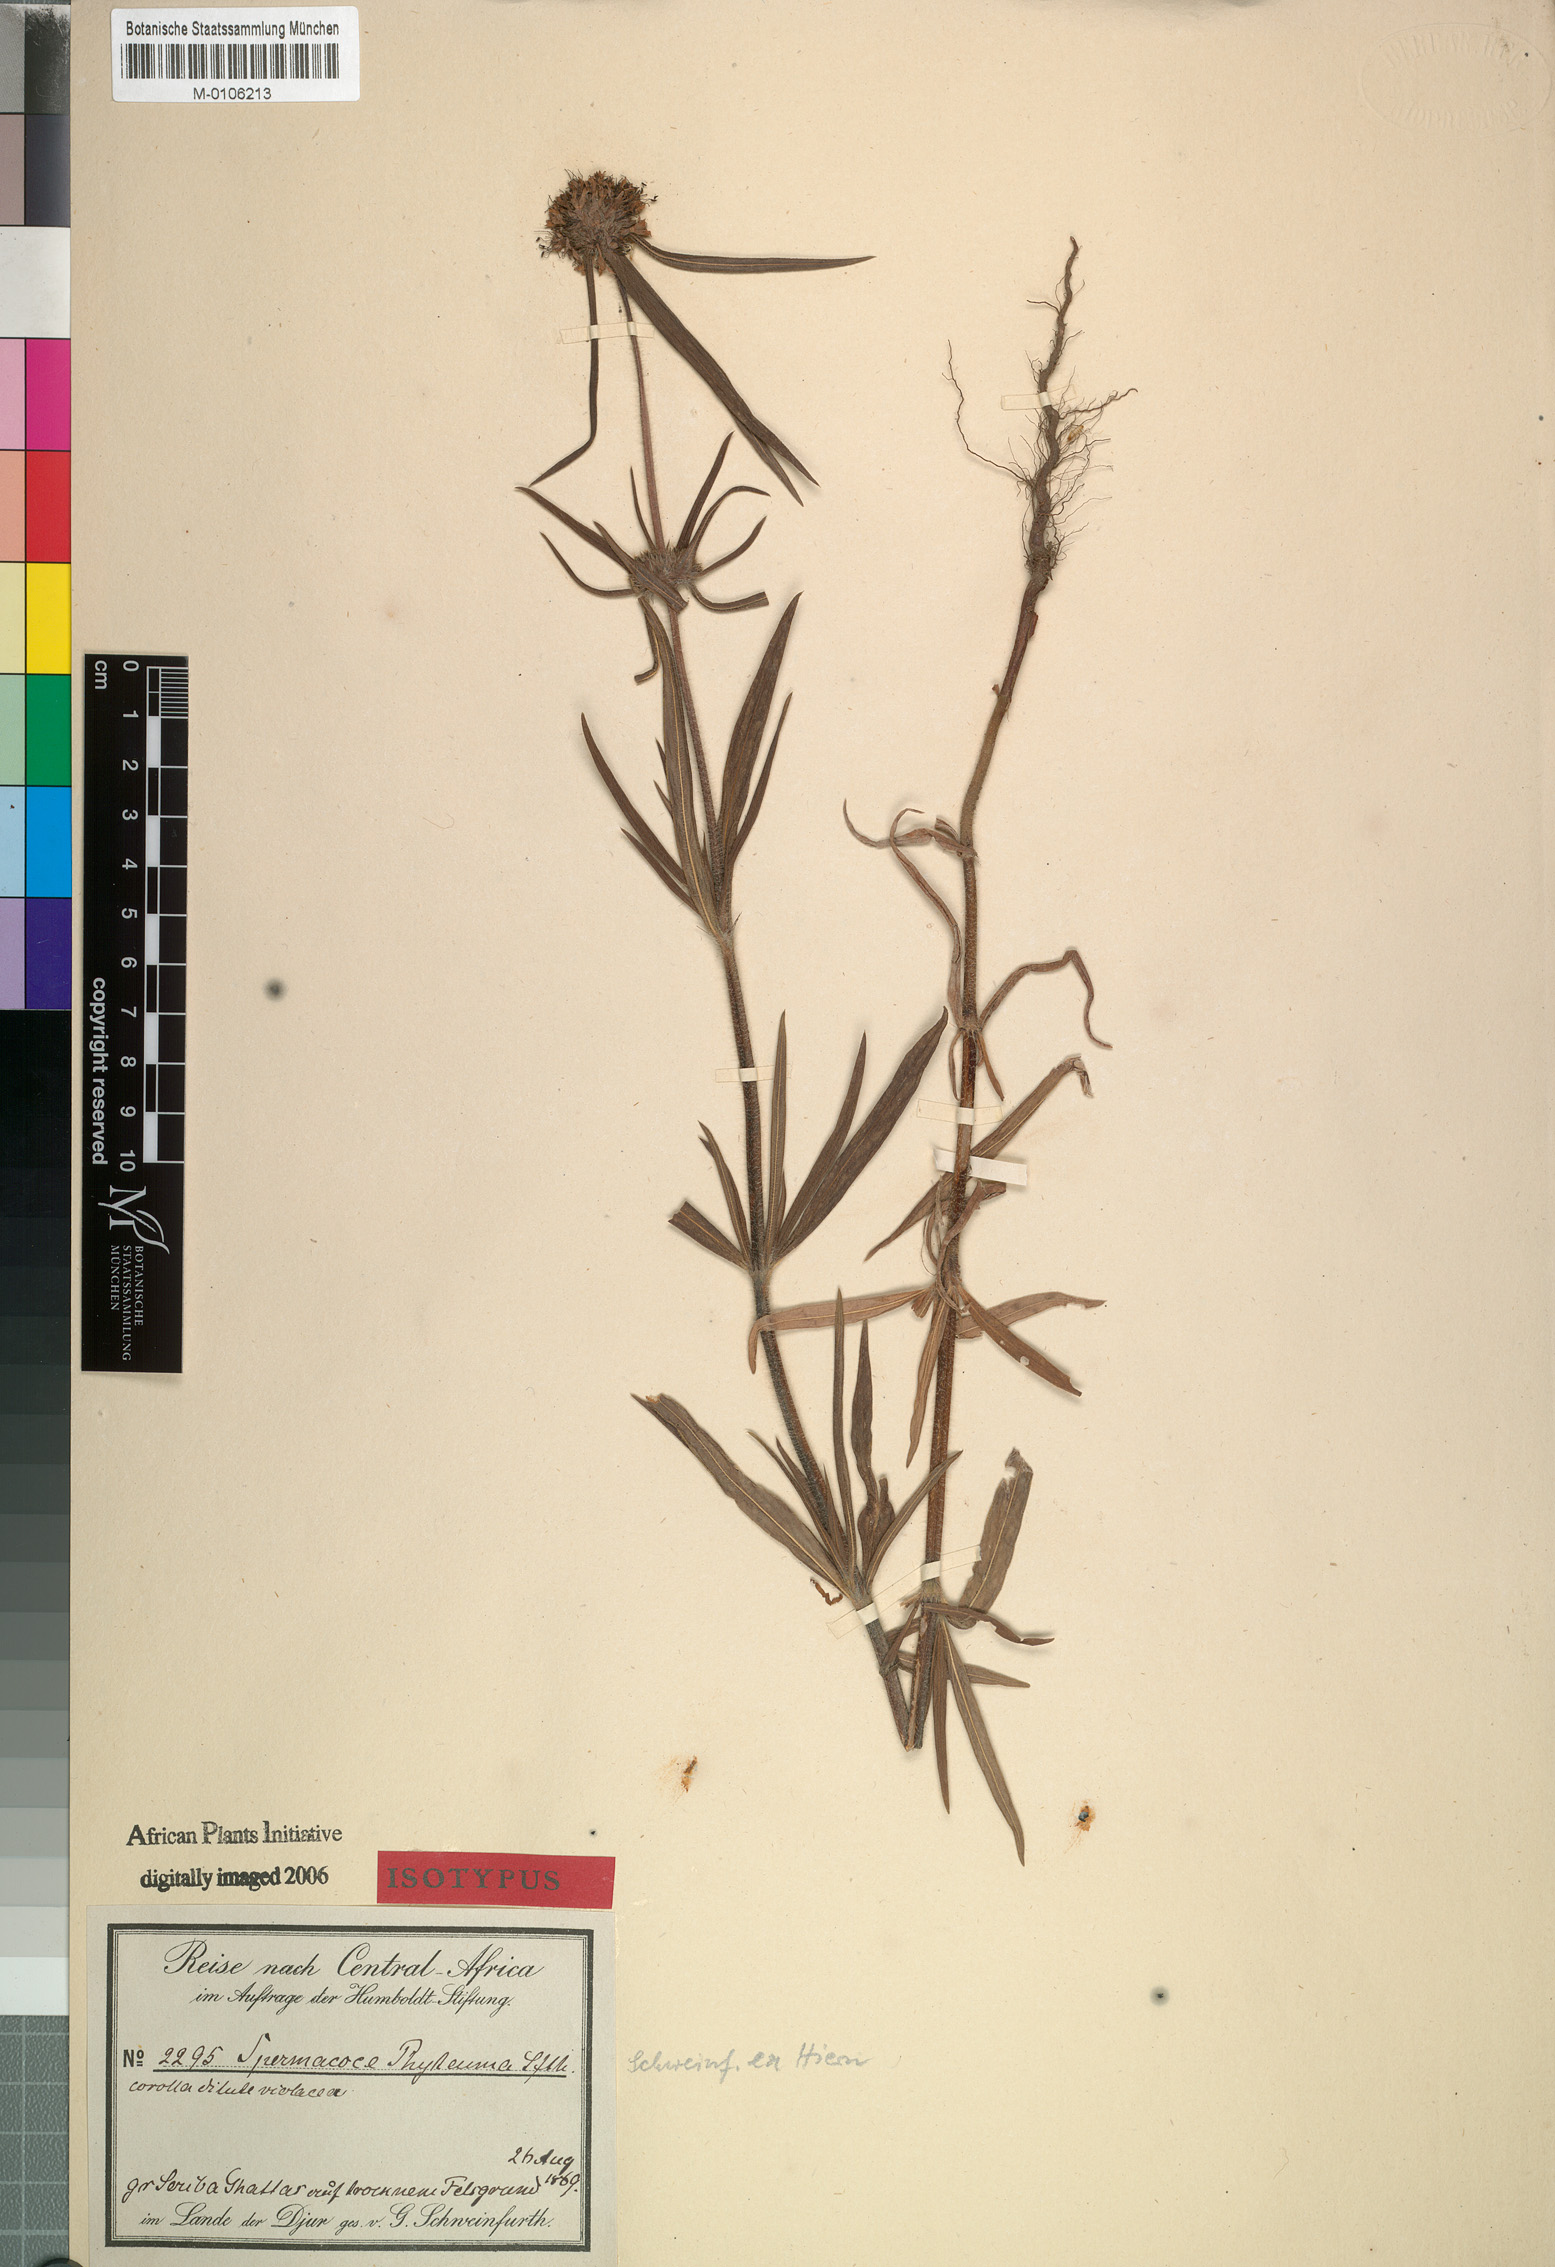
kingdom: Plantae
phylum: Tracheophyta
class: Magnoliopsida
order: Gentianales
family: Rubiaceae
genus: Spermacoce
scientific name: Spermacoce phyteuma
